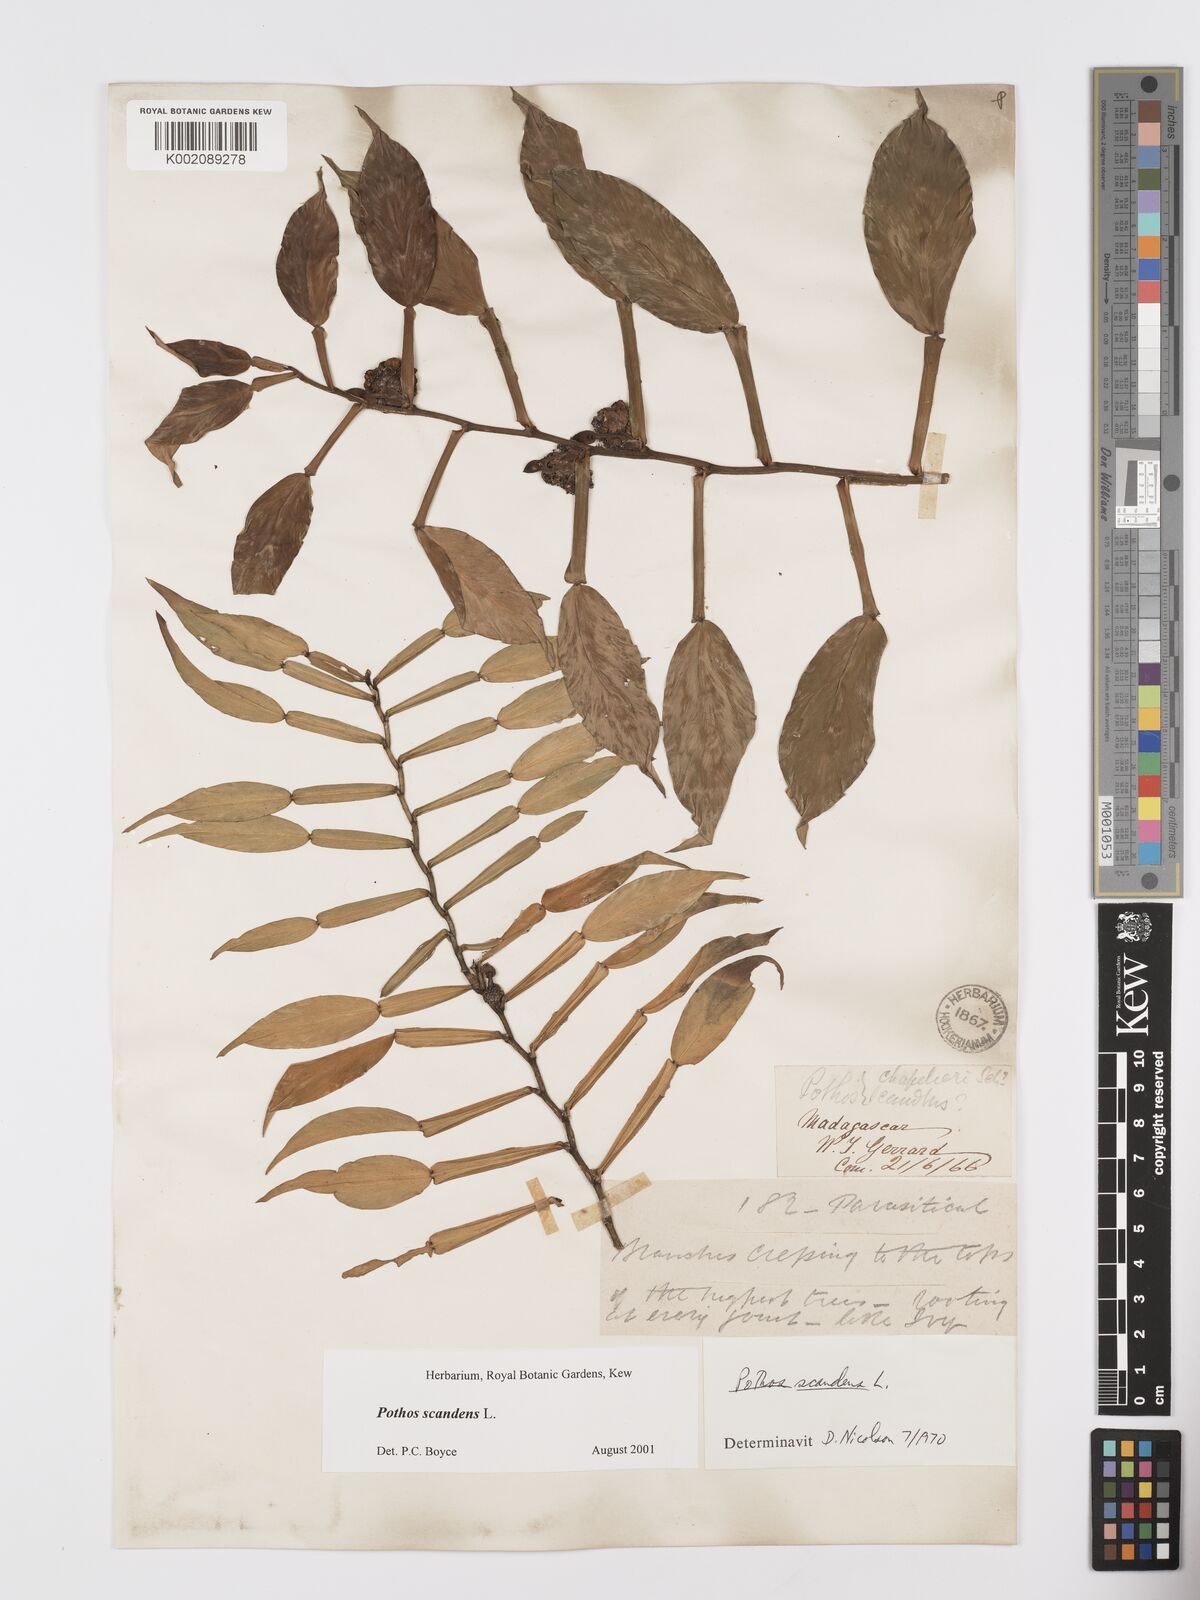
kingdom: Plantae
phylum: Tracheophyta
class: Liliopsida
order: Alismatales
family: Araceae
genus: Pothos
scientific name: Pothos scandens
